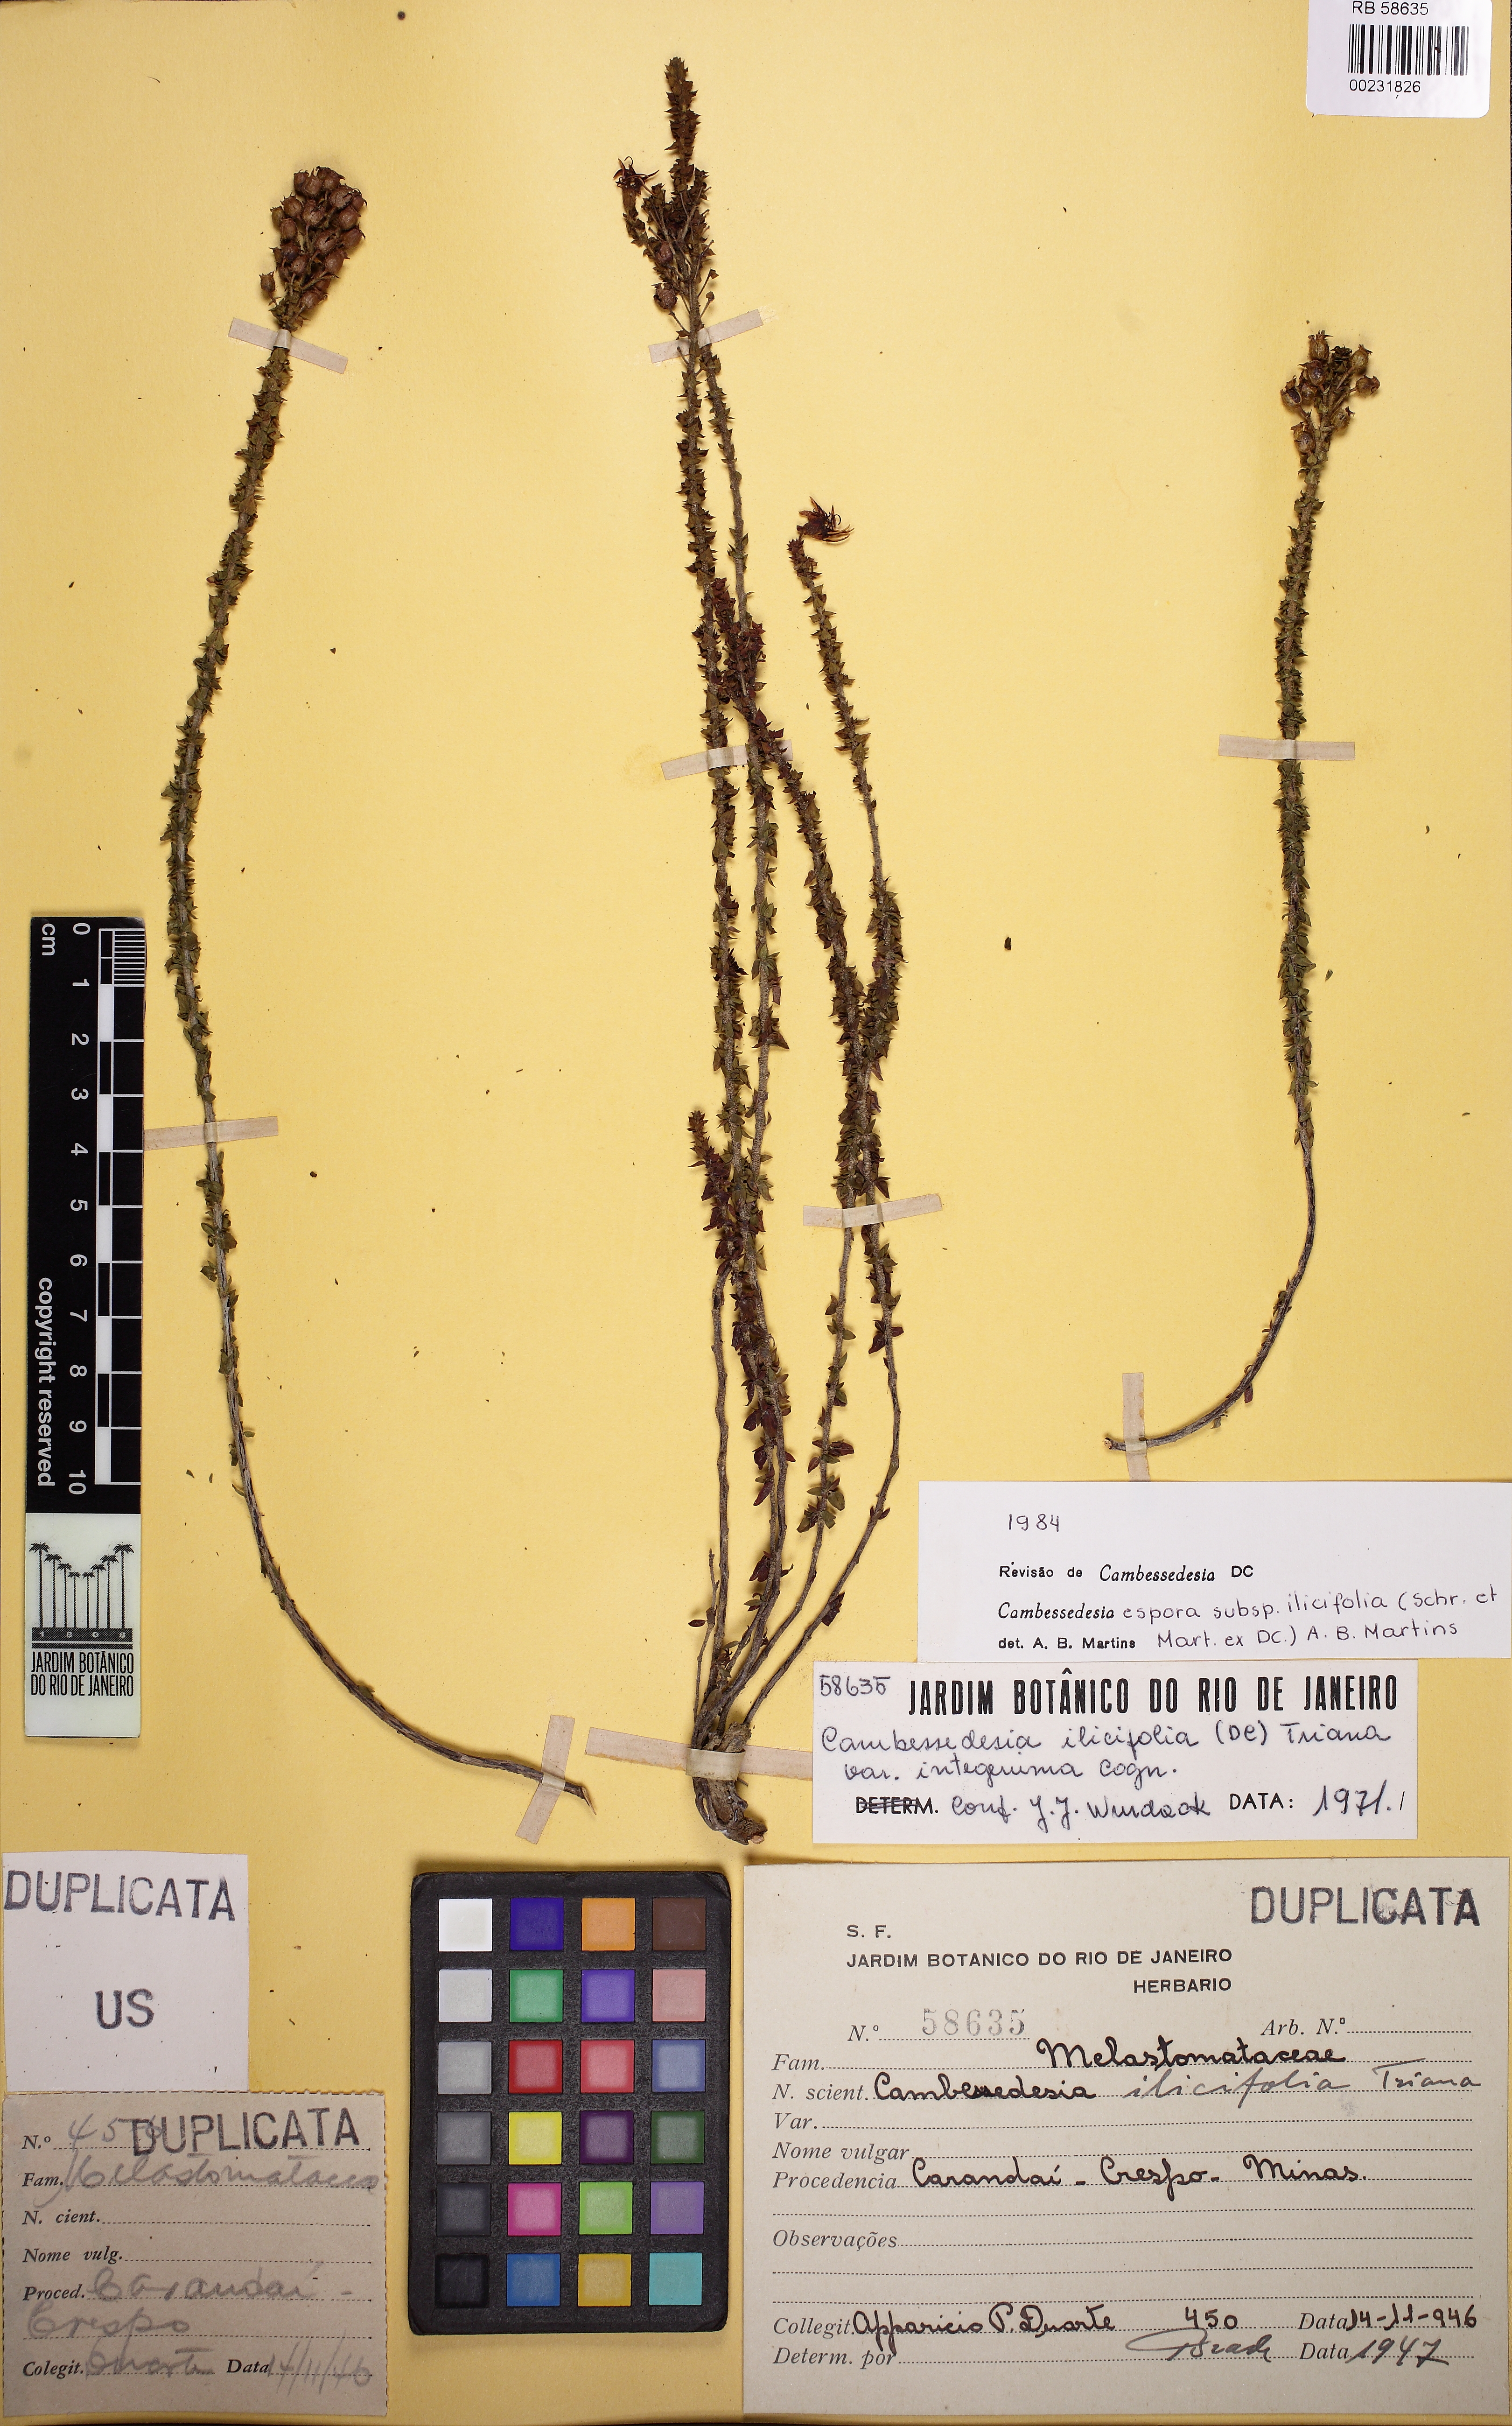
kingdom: Plantae
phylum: Tracheophyta
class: Magnoliopsida
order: Myrtales
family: Melastomataceae
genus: Cambessedesia
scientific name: Cambessedesia espora
